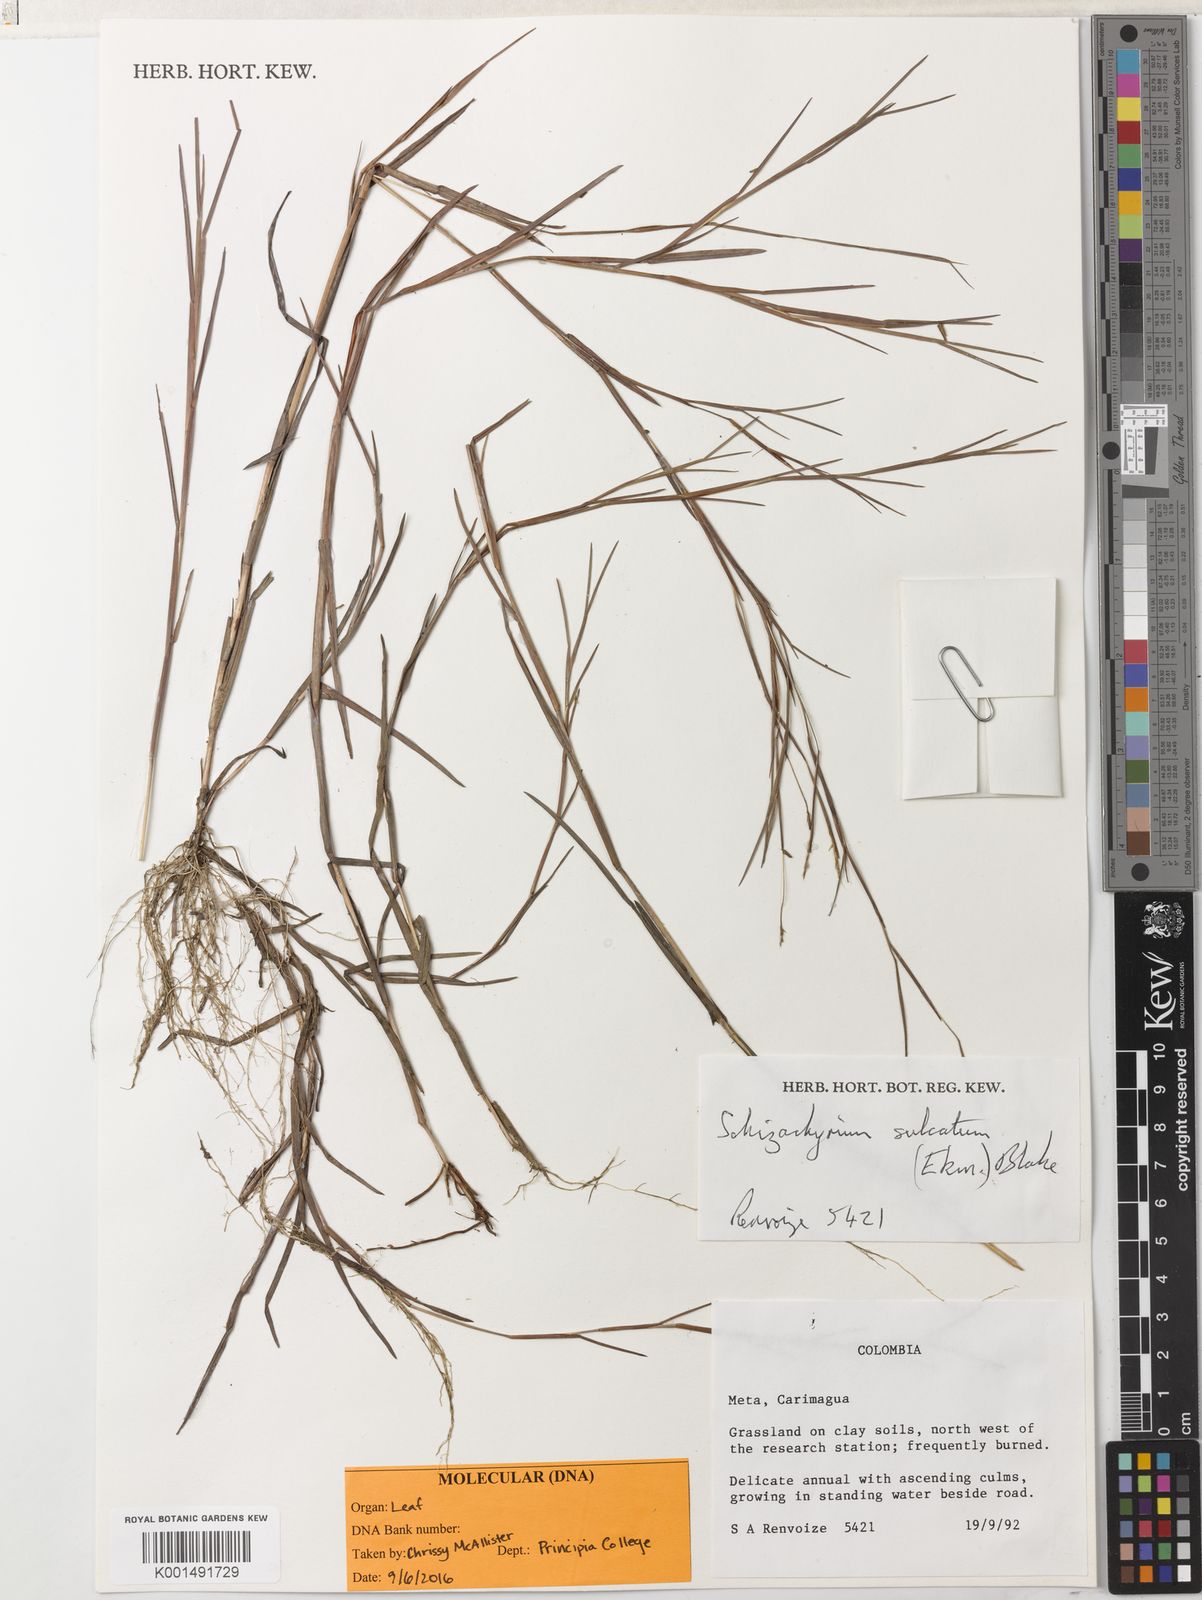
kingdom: Plantae
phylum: Tracheophyta
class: Liliopsida
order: Poales
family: Poaceae
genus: Schizachyrium
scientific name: Schizachyrium sulcatum
